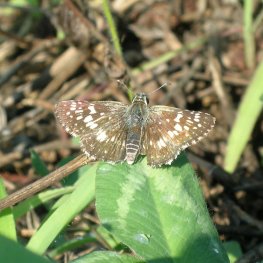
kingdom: Animalia
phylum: Arthropoda
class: Insecta
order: Lepidoptera
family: Hesperiidae
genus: Pyrgus
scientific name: Pyrgus communis
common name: Common Checkered-Skipper
